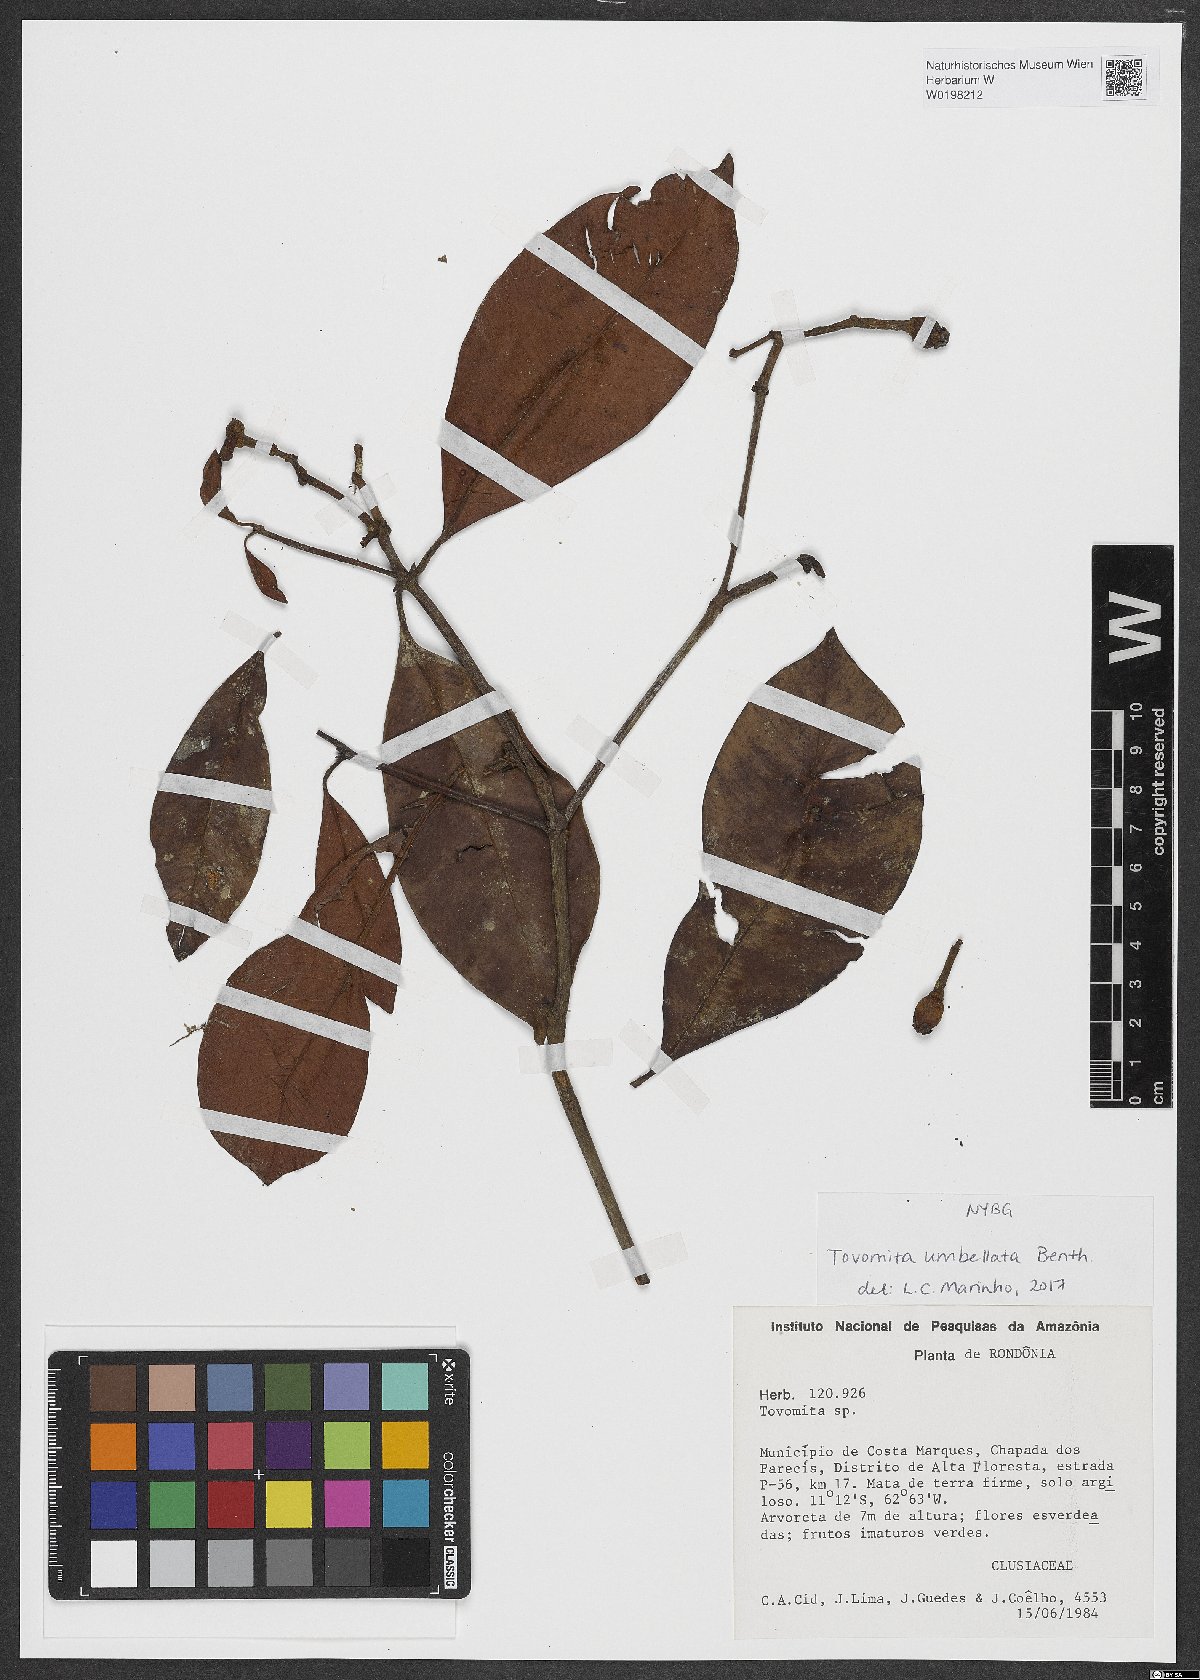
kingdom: Plantae
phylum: Tracheophyta
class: Magnoliopsida
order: Malpighiales
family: Clusiaceae
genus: Tovomita
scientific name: Tovomita umbellata
